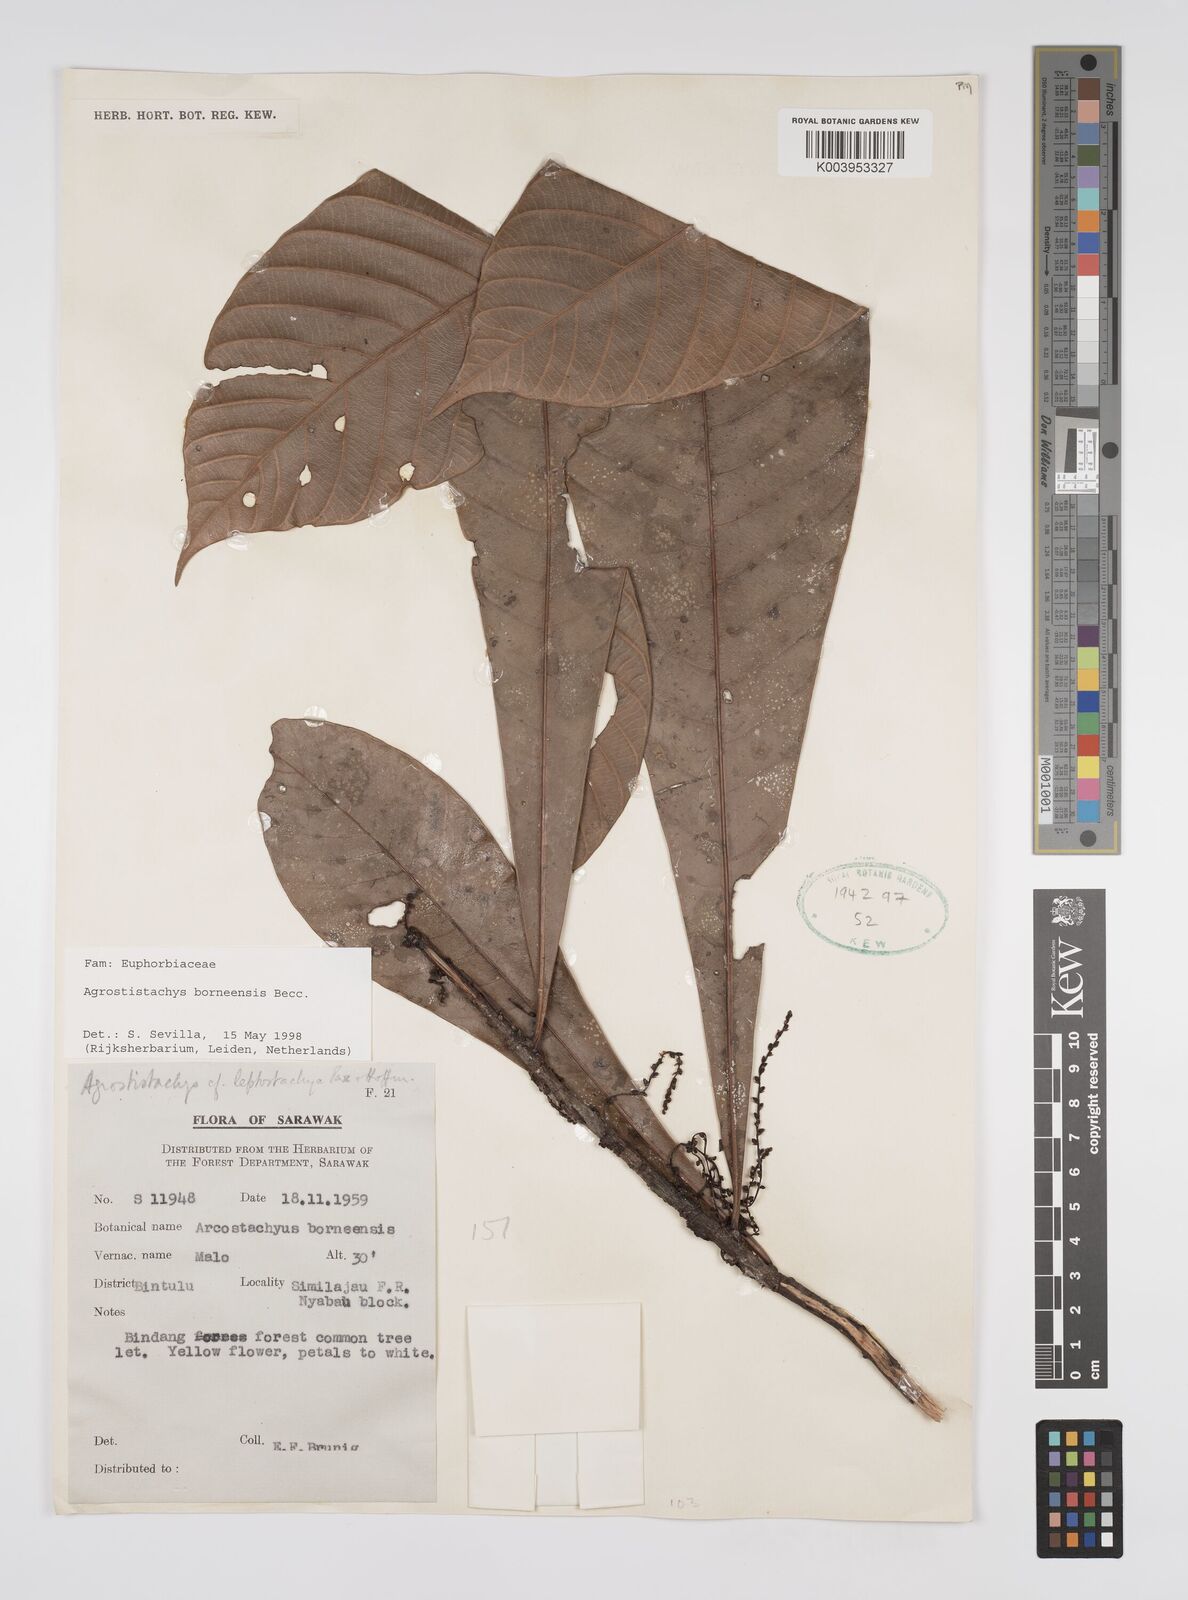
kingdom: Plantae
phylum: Tracheophyta
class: Magnoliopsida
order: Malpighiales
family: Euphorbiaceae
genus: Agrostistachys
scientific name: Agrostistachys borneensis
